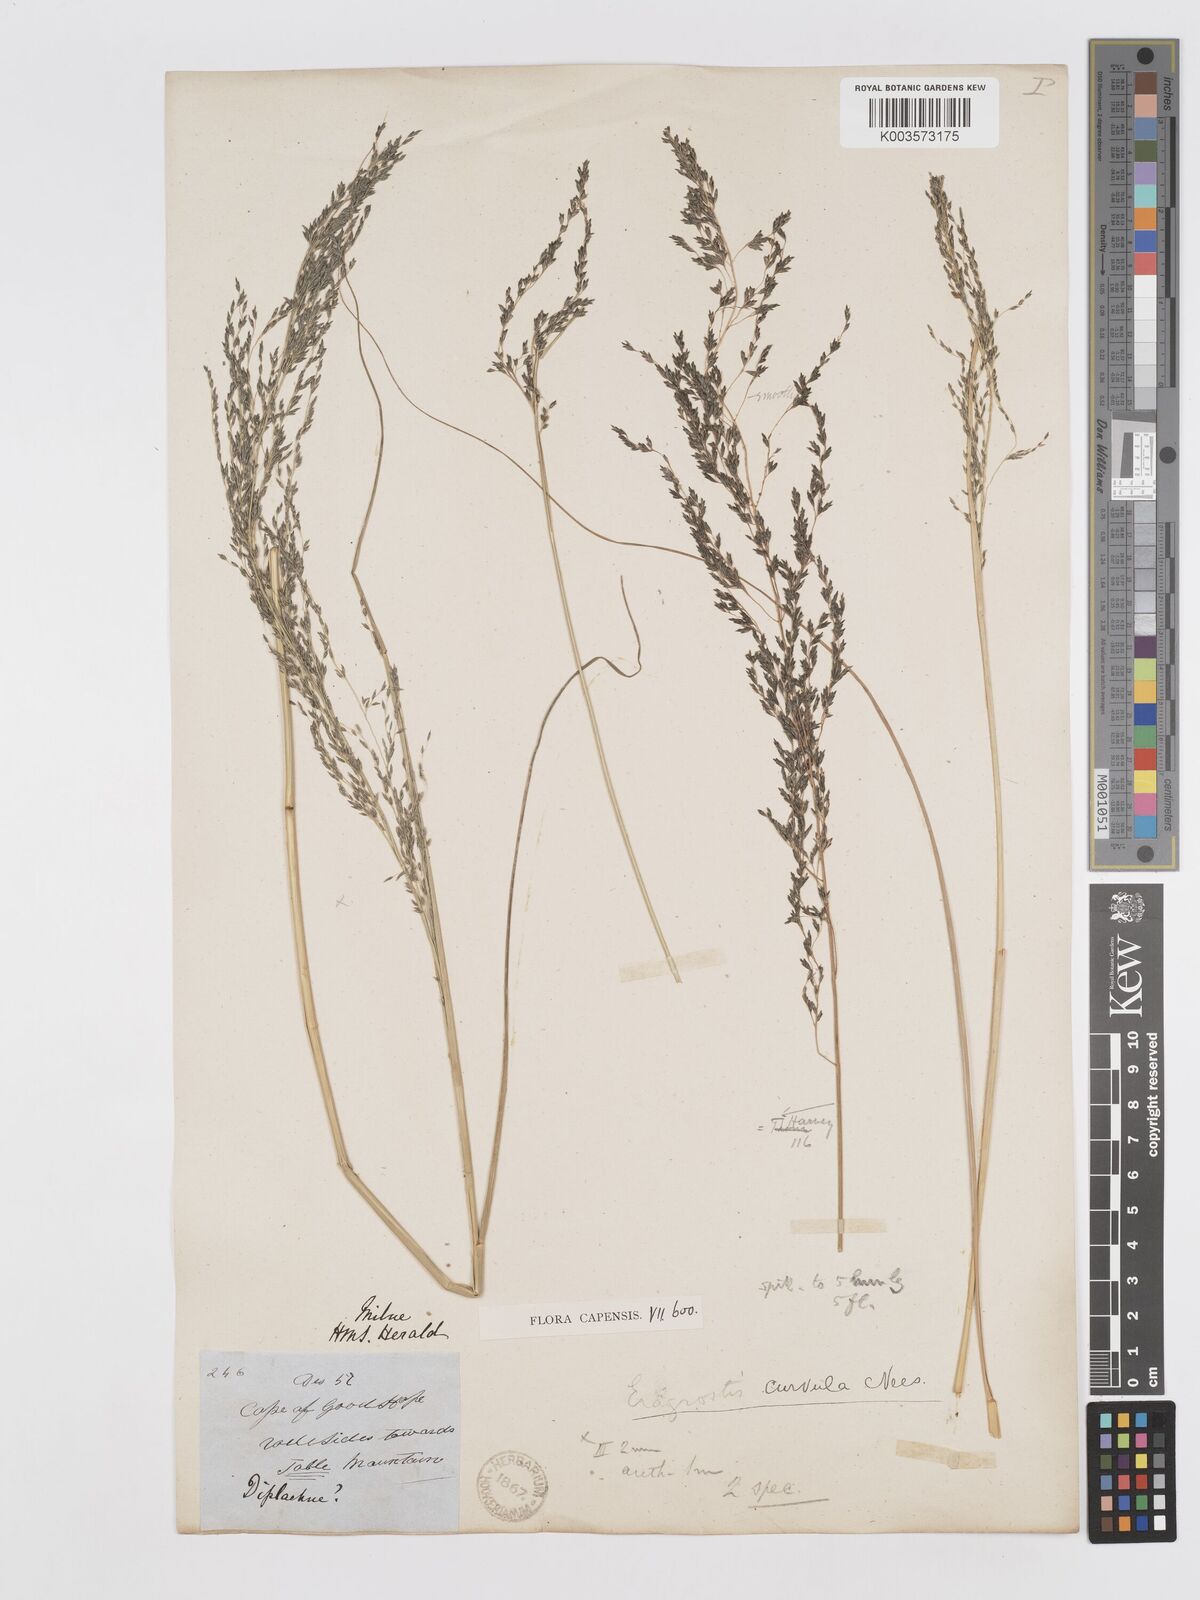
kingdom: Plantae
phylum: Tracheophyta
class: Liliopsida
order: Poales
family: Poaceae
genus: Eragrostis
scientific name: Eragrostis curvula
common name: African love-grass
